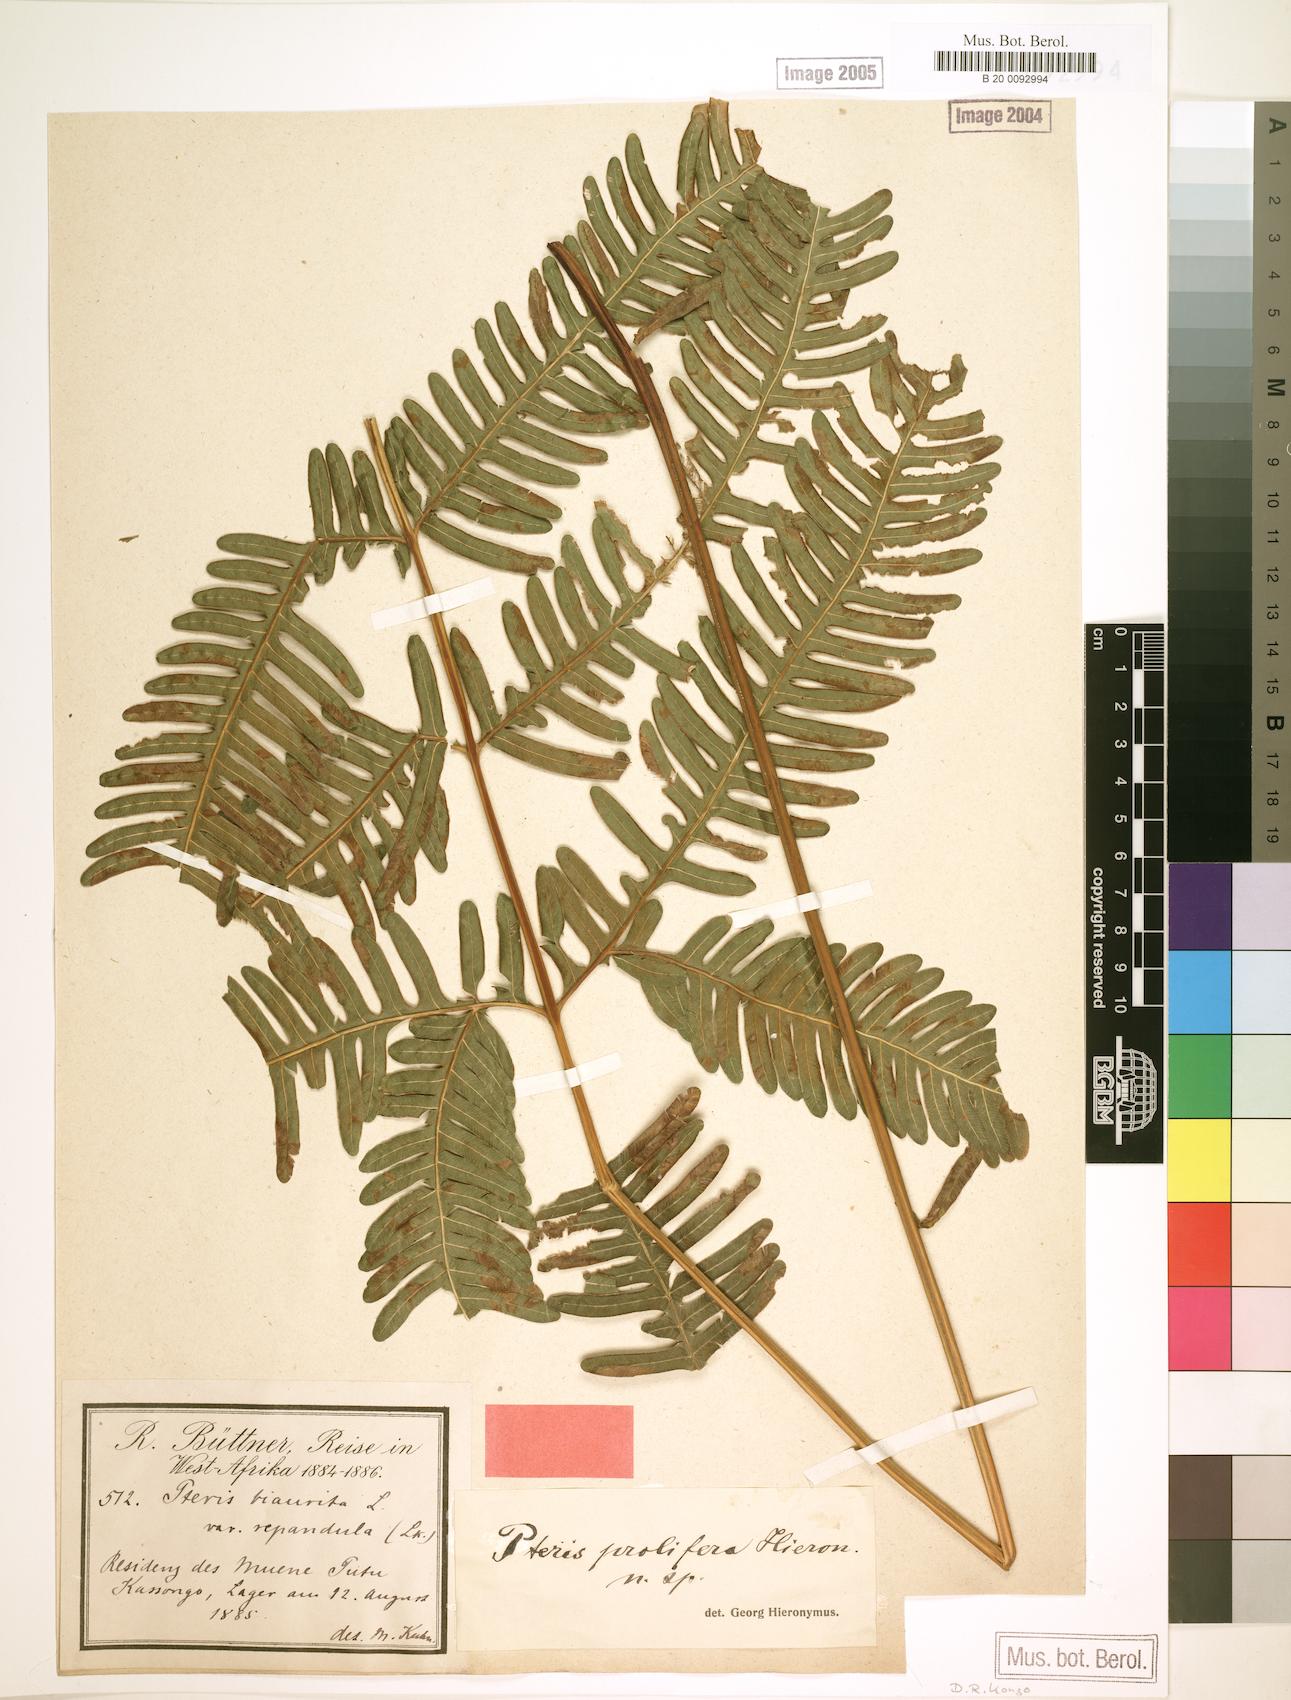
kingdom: Plantae
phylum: Tracheophyta
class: Polypodiopsida
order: Polypodiales
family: Pteridaceae
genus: Pteris
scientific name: Pteris preussii
